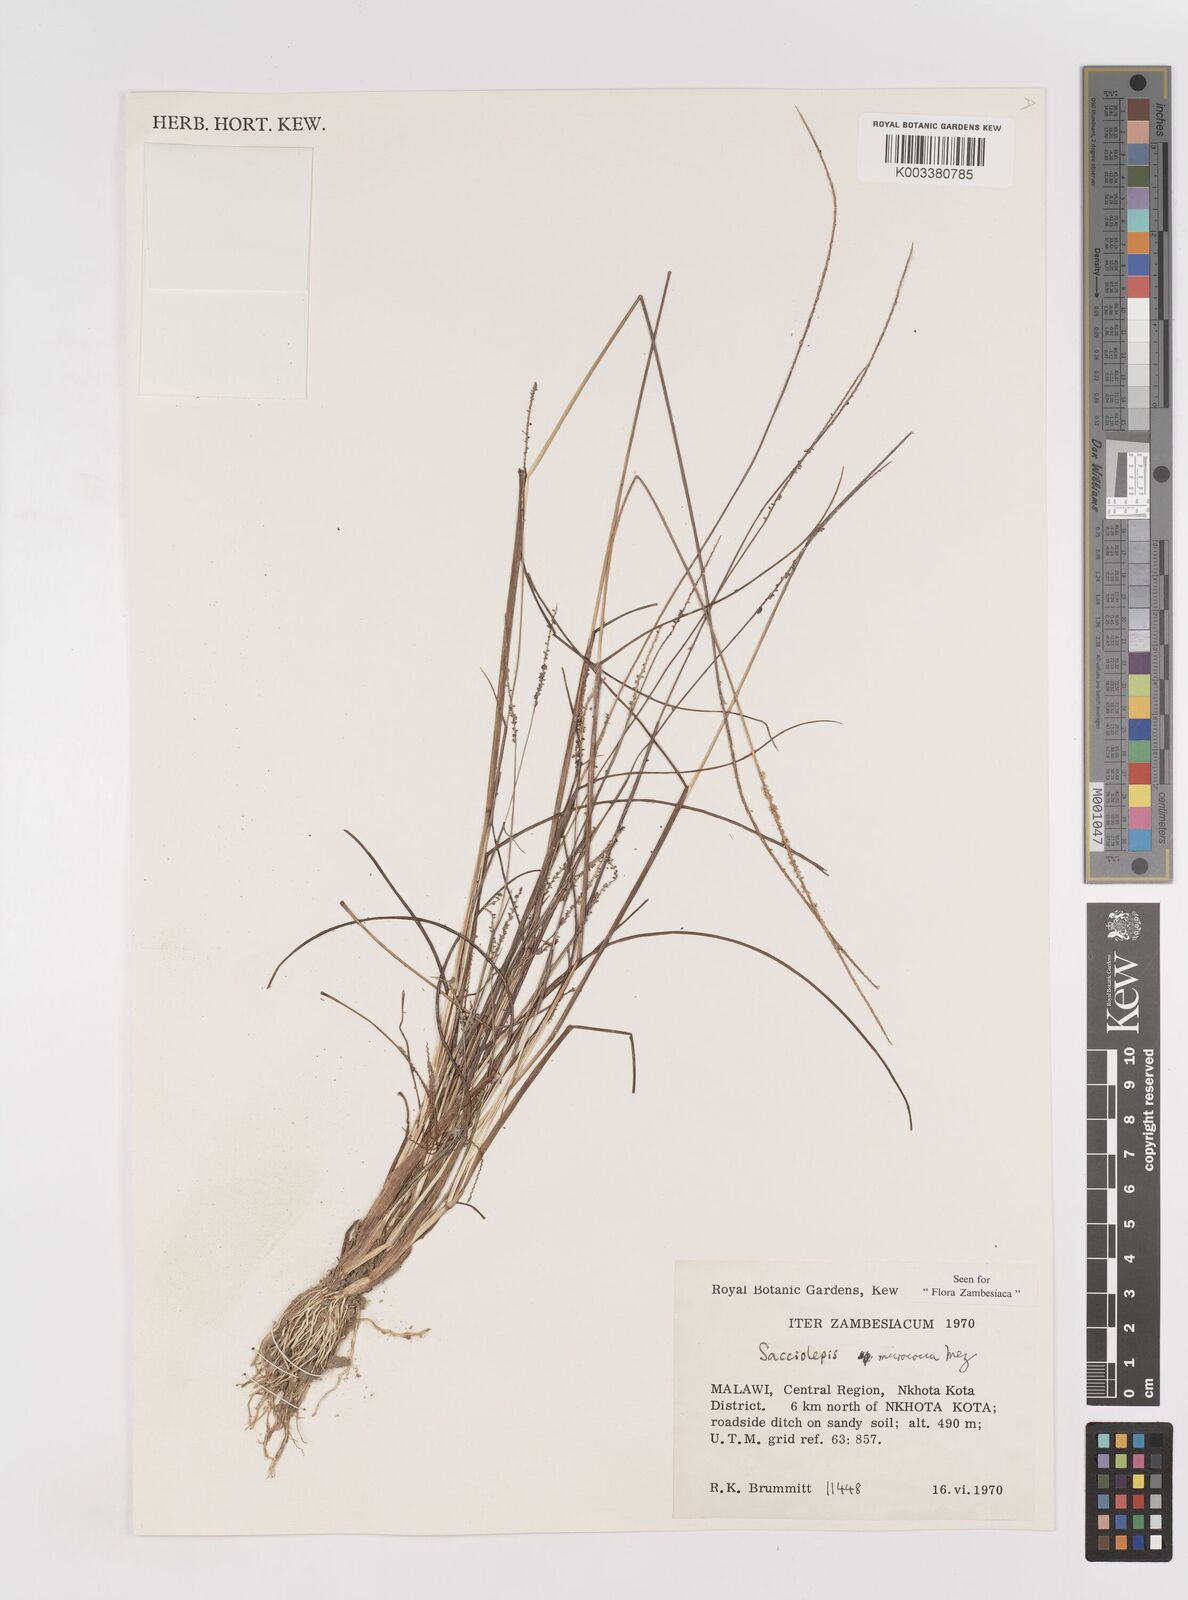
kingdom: Plantae
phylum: Tracheophyta
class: Liliopsida
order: Poales
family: Poaceae
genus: Sacciolepis
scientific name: Sacciolepis micrococca
